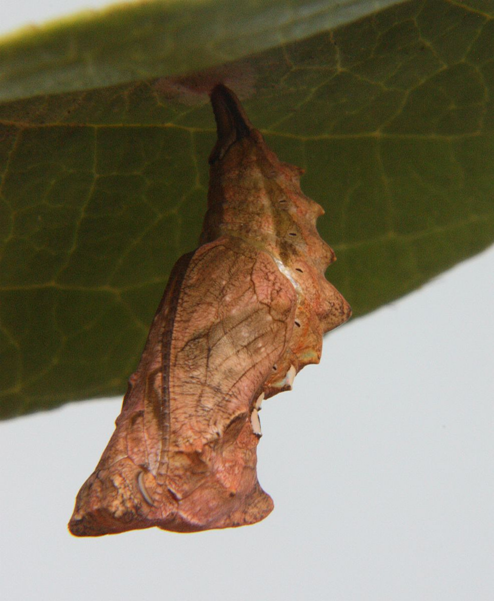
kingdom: Animalia
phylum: Arthropoda
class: Insecta
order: Lepidoptera
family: Nymphalidae
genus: Polygonia
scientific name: Polygonia satyrus
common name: Satyr Comma
